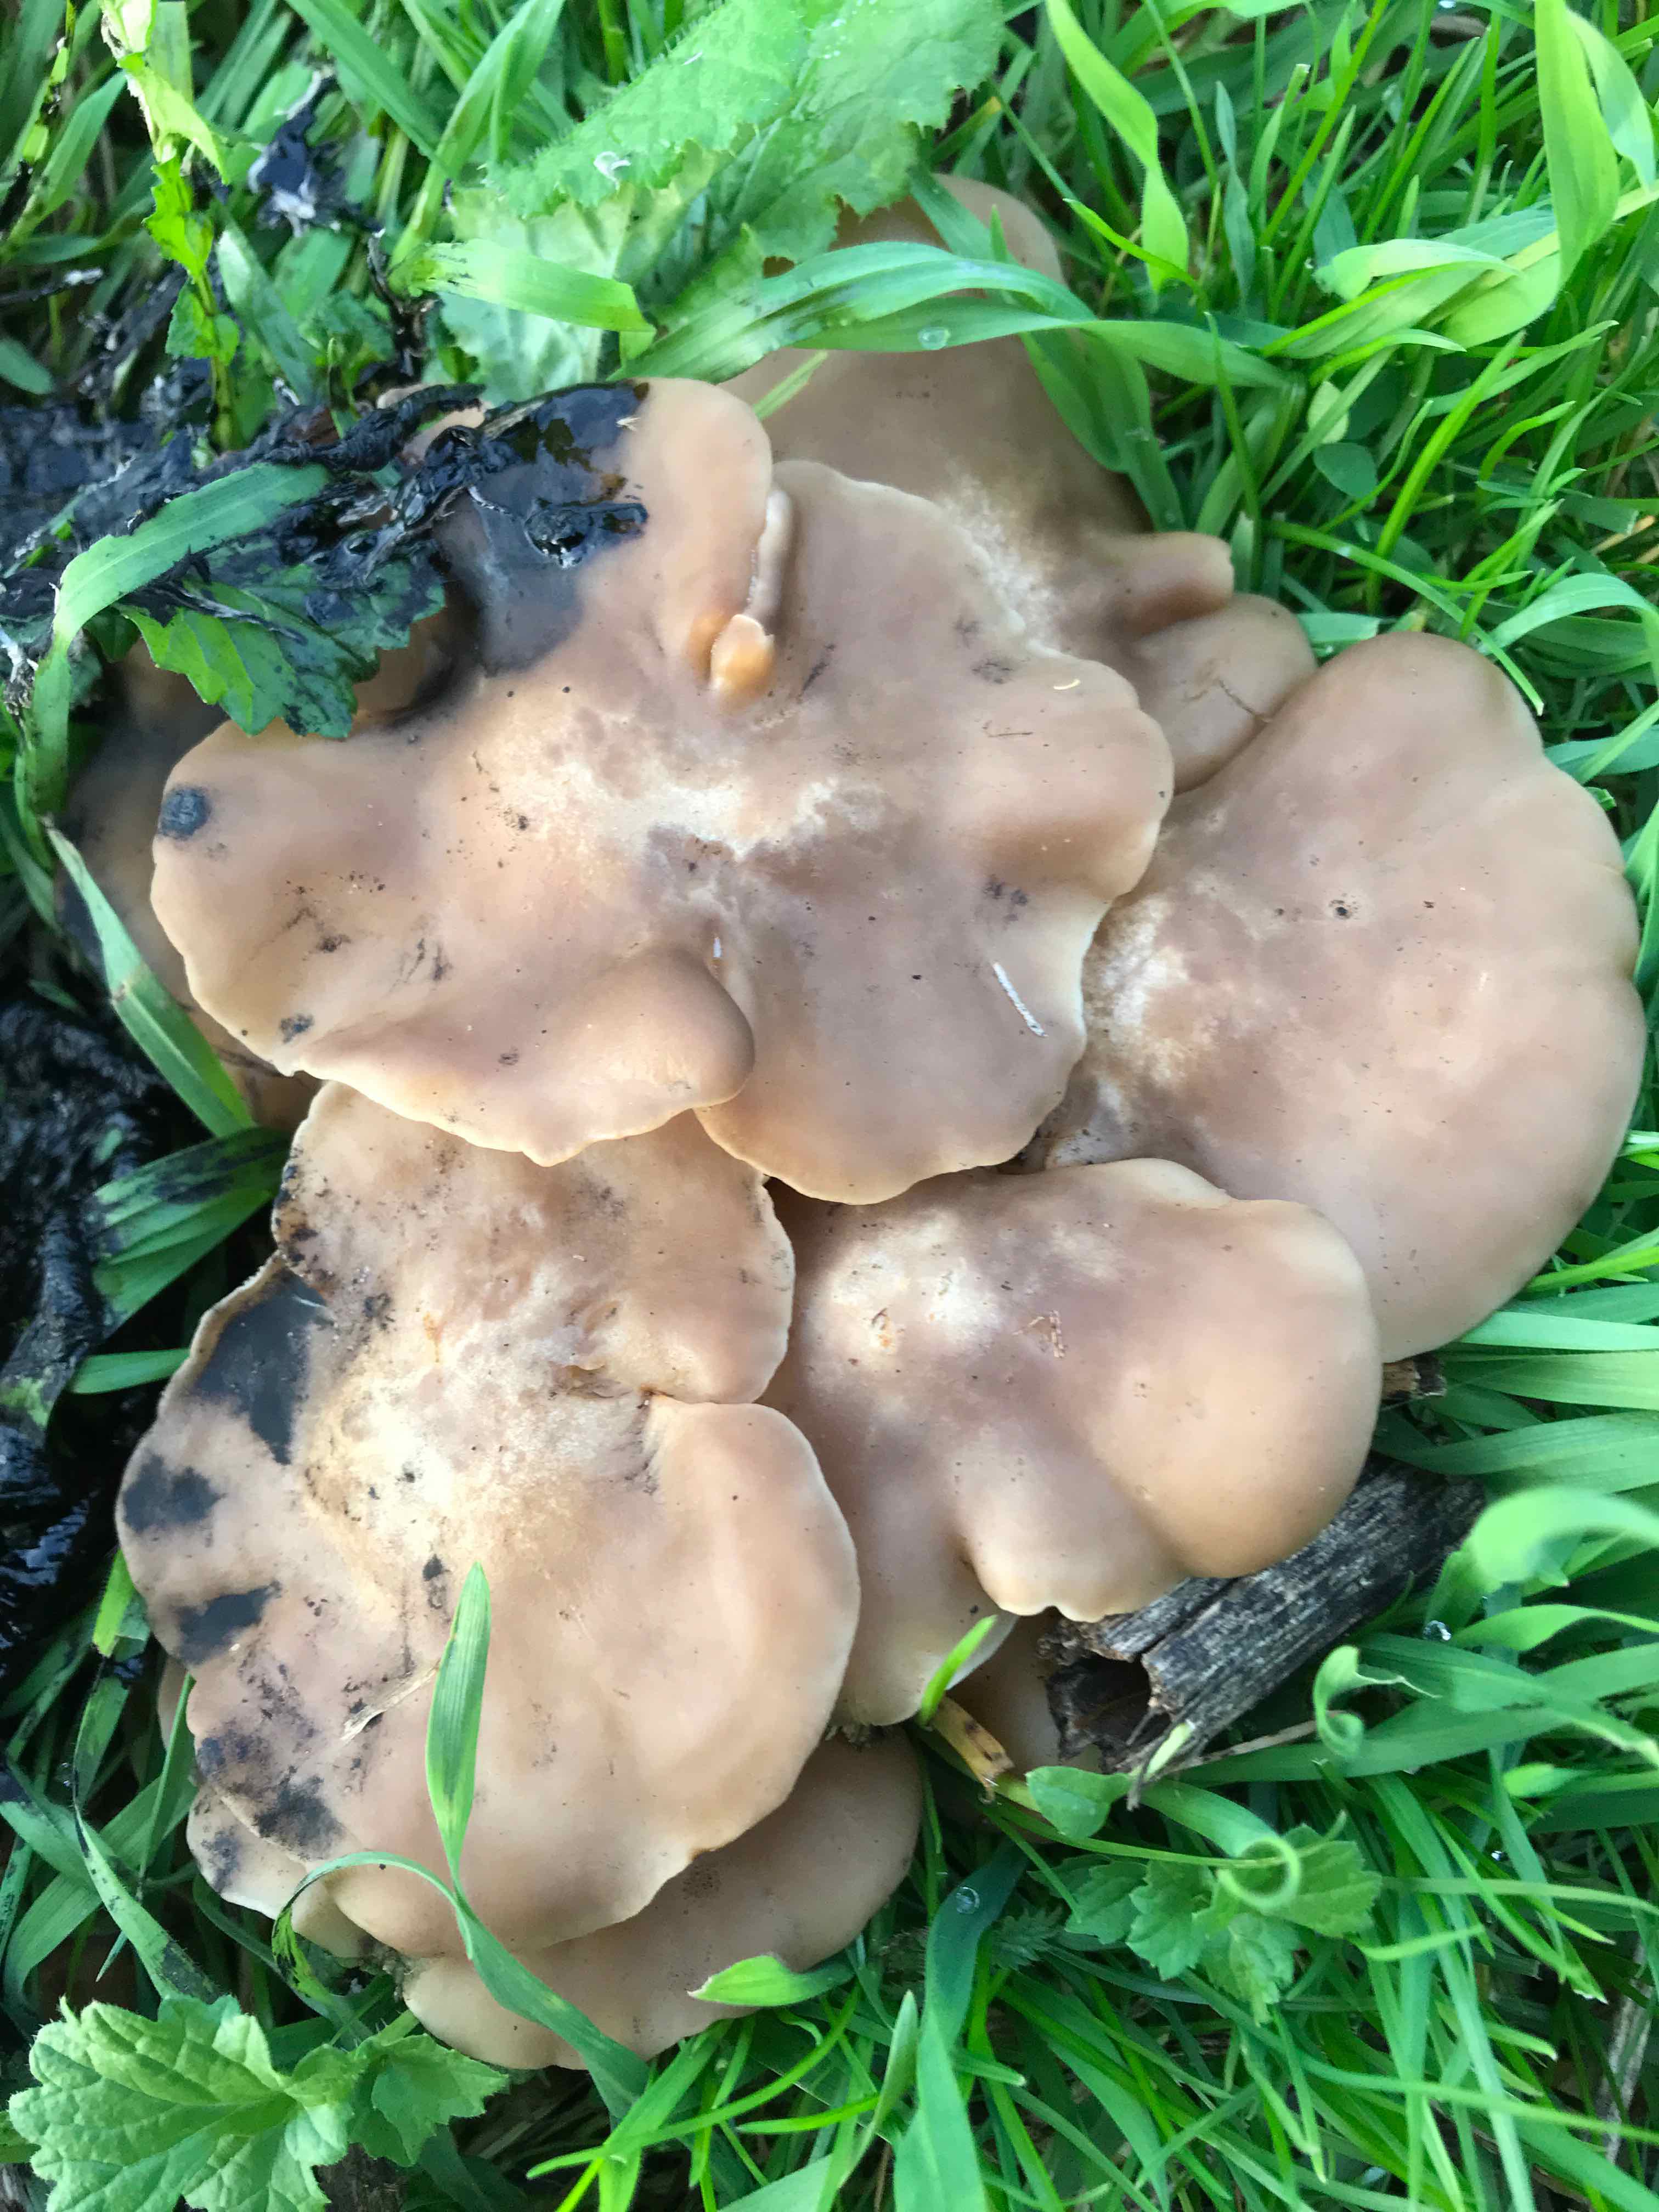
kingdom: Fungi
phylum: Basidiomycota
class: Agaricomycetes
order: Agaricales
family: Lyophyllaceae
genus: Lyophyllum
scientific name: Lyophyllum
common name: gråblad
